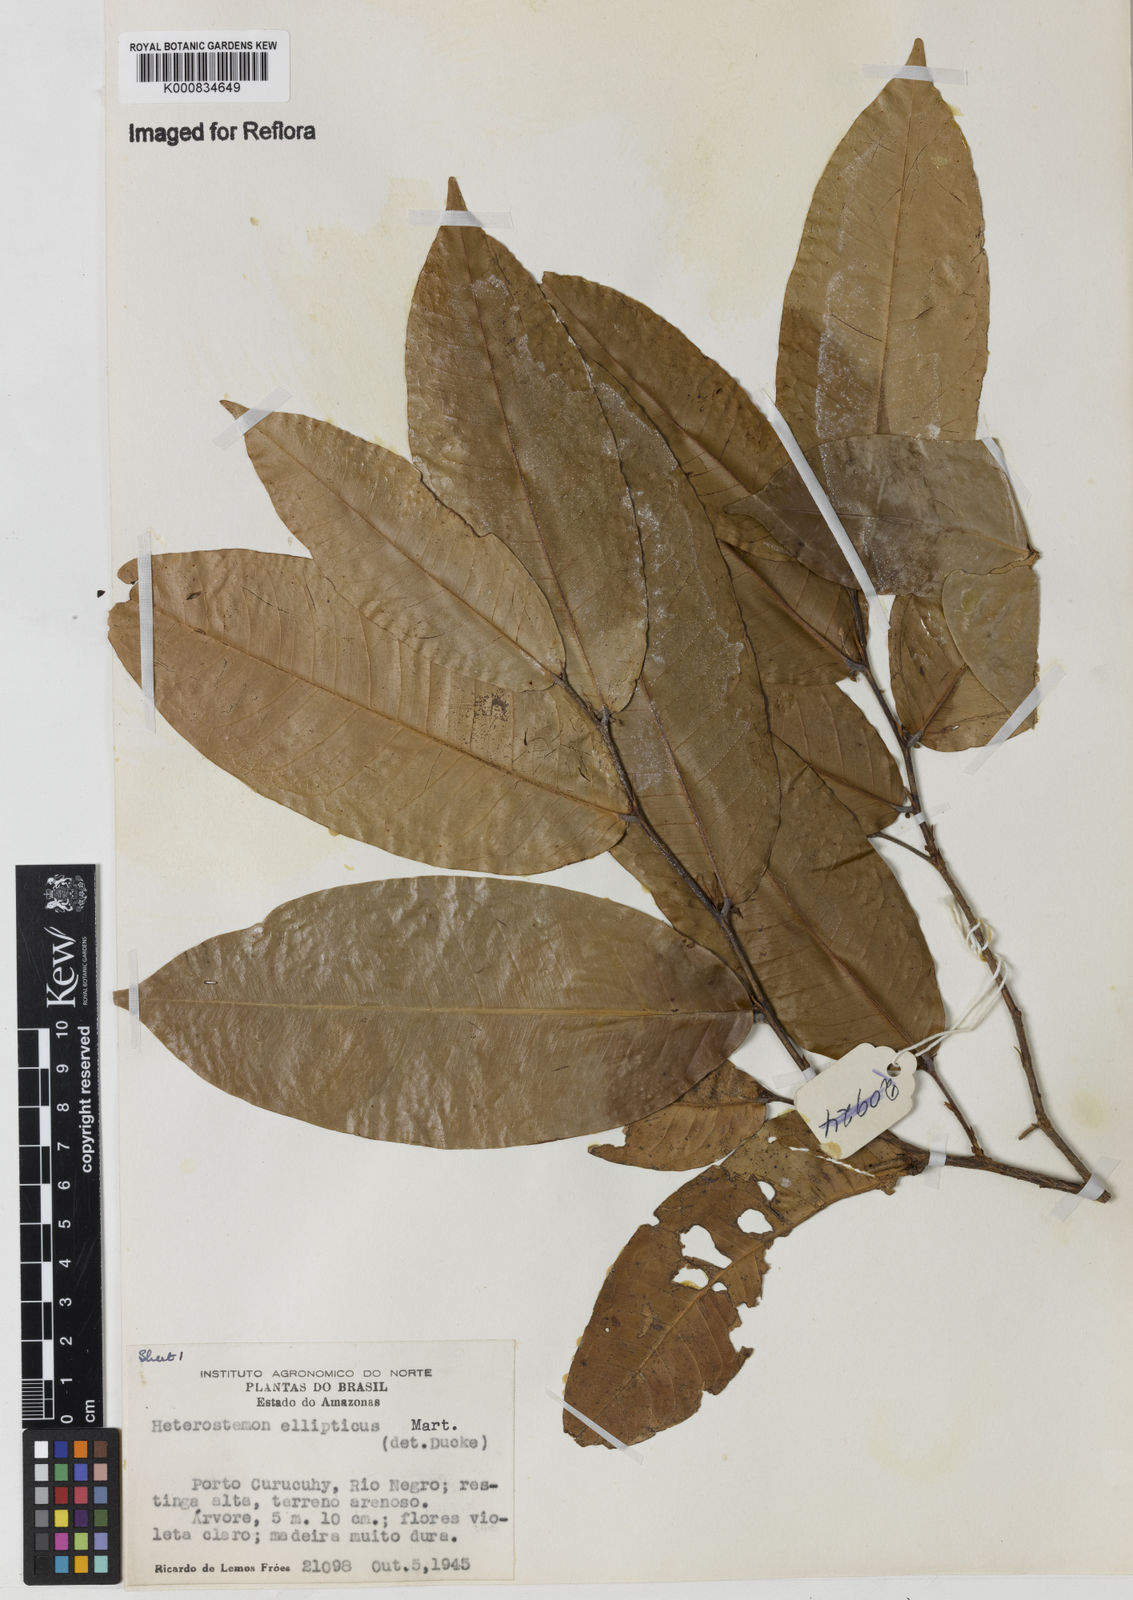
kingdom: Plantae
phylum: Tracheophyta
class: Magnoliopsida
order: Fabales
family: Fabaceae
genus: Heterostemon
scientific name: Heterostemon ellipticus
